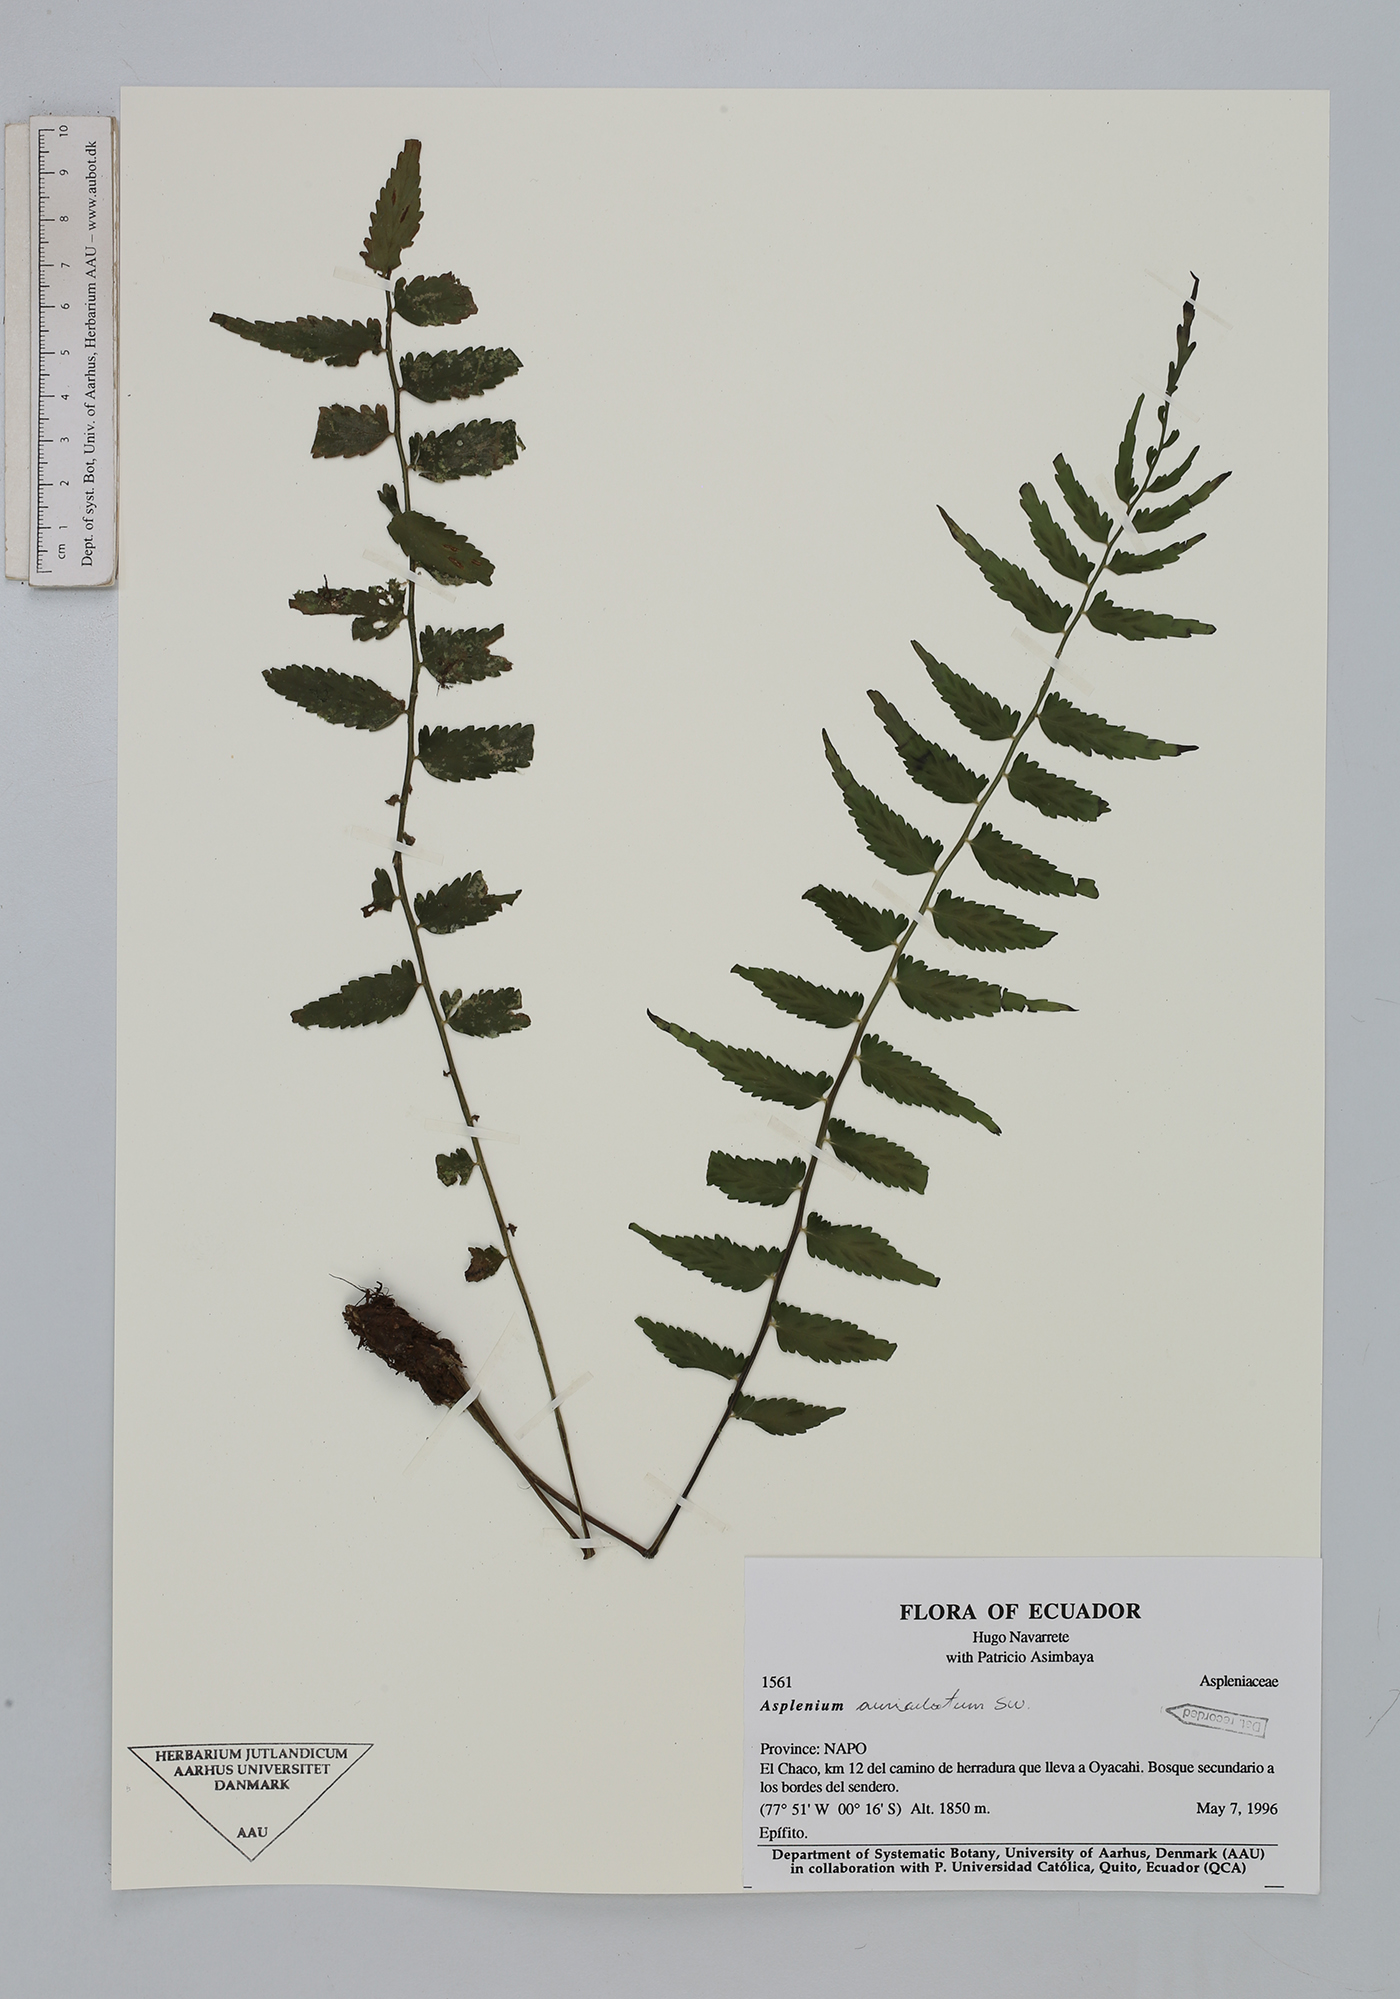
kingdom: Plantae
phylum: Tracheophyta
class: Polypodiopsida
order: Polypodiales
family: Aspleniaceae
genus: Asplenium
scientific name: Asplenium auriculatum
